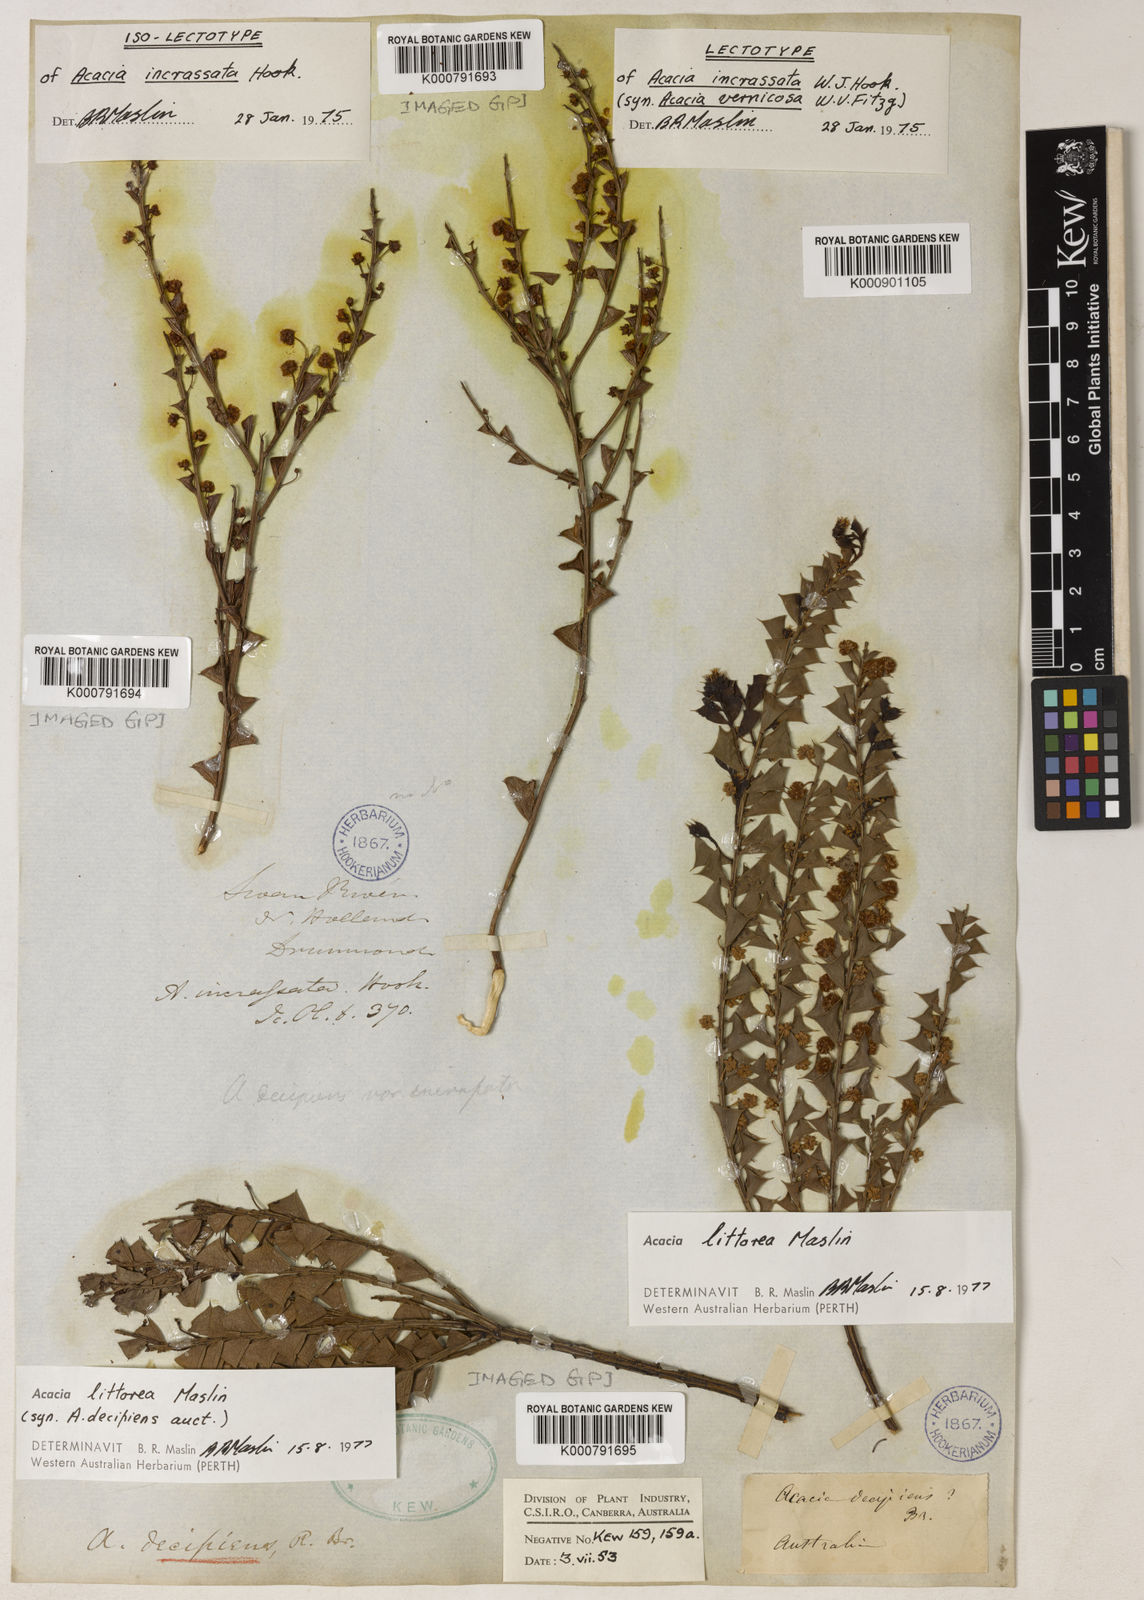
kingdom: Plantae
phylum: Tracheophyta
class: Magnoliopsida
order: Fabales
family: Fabaceae
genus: Acacia
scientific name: Acacia incrassata
